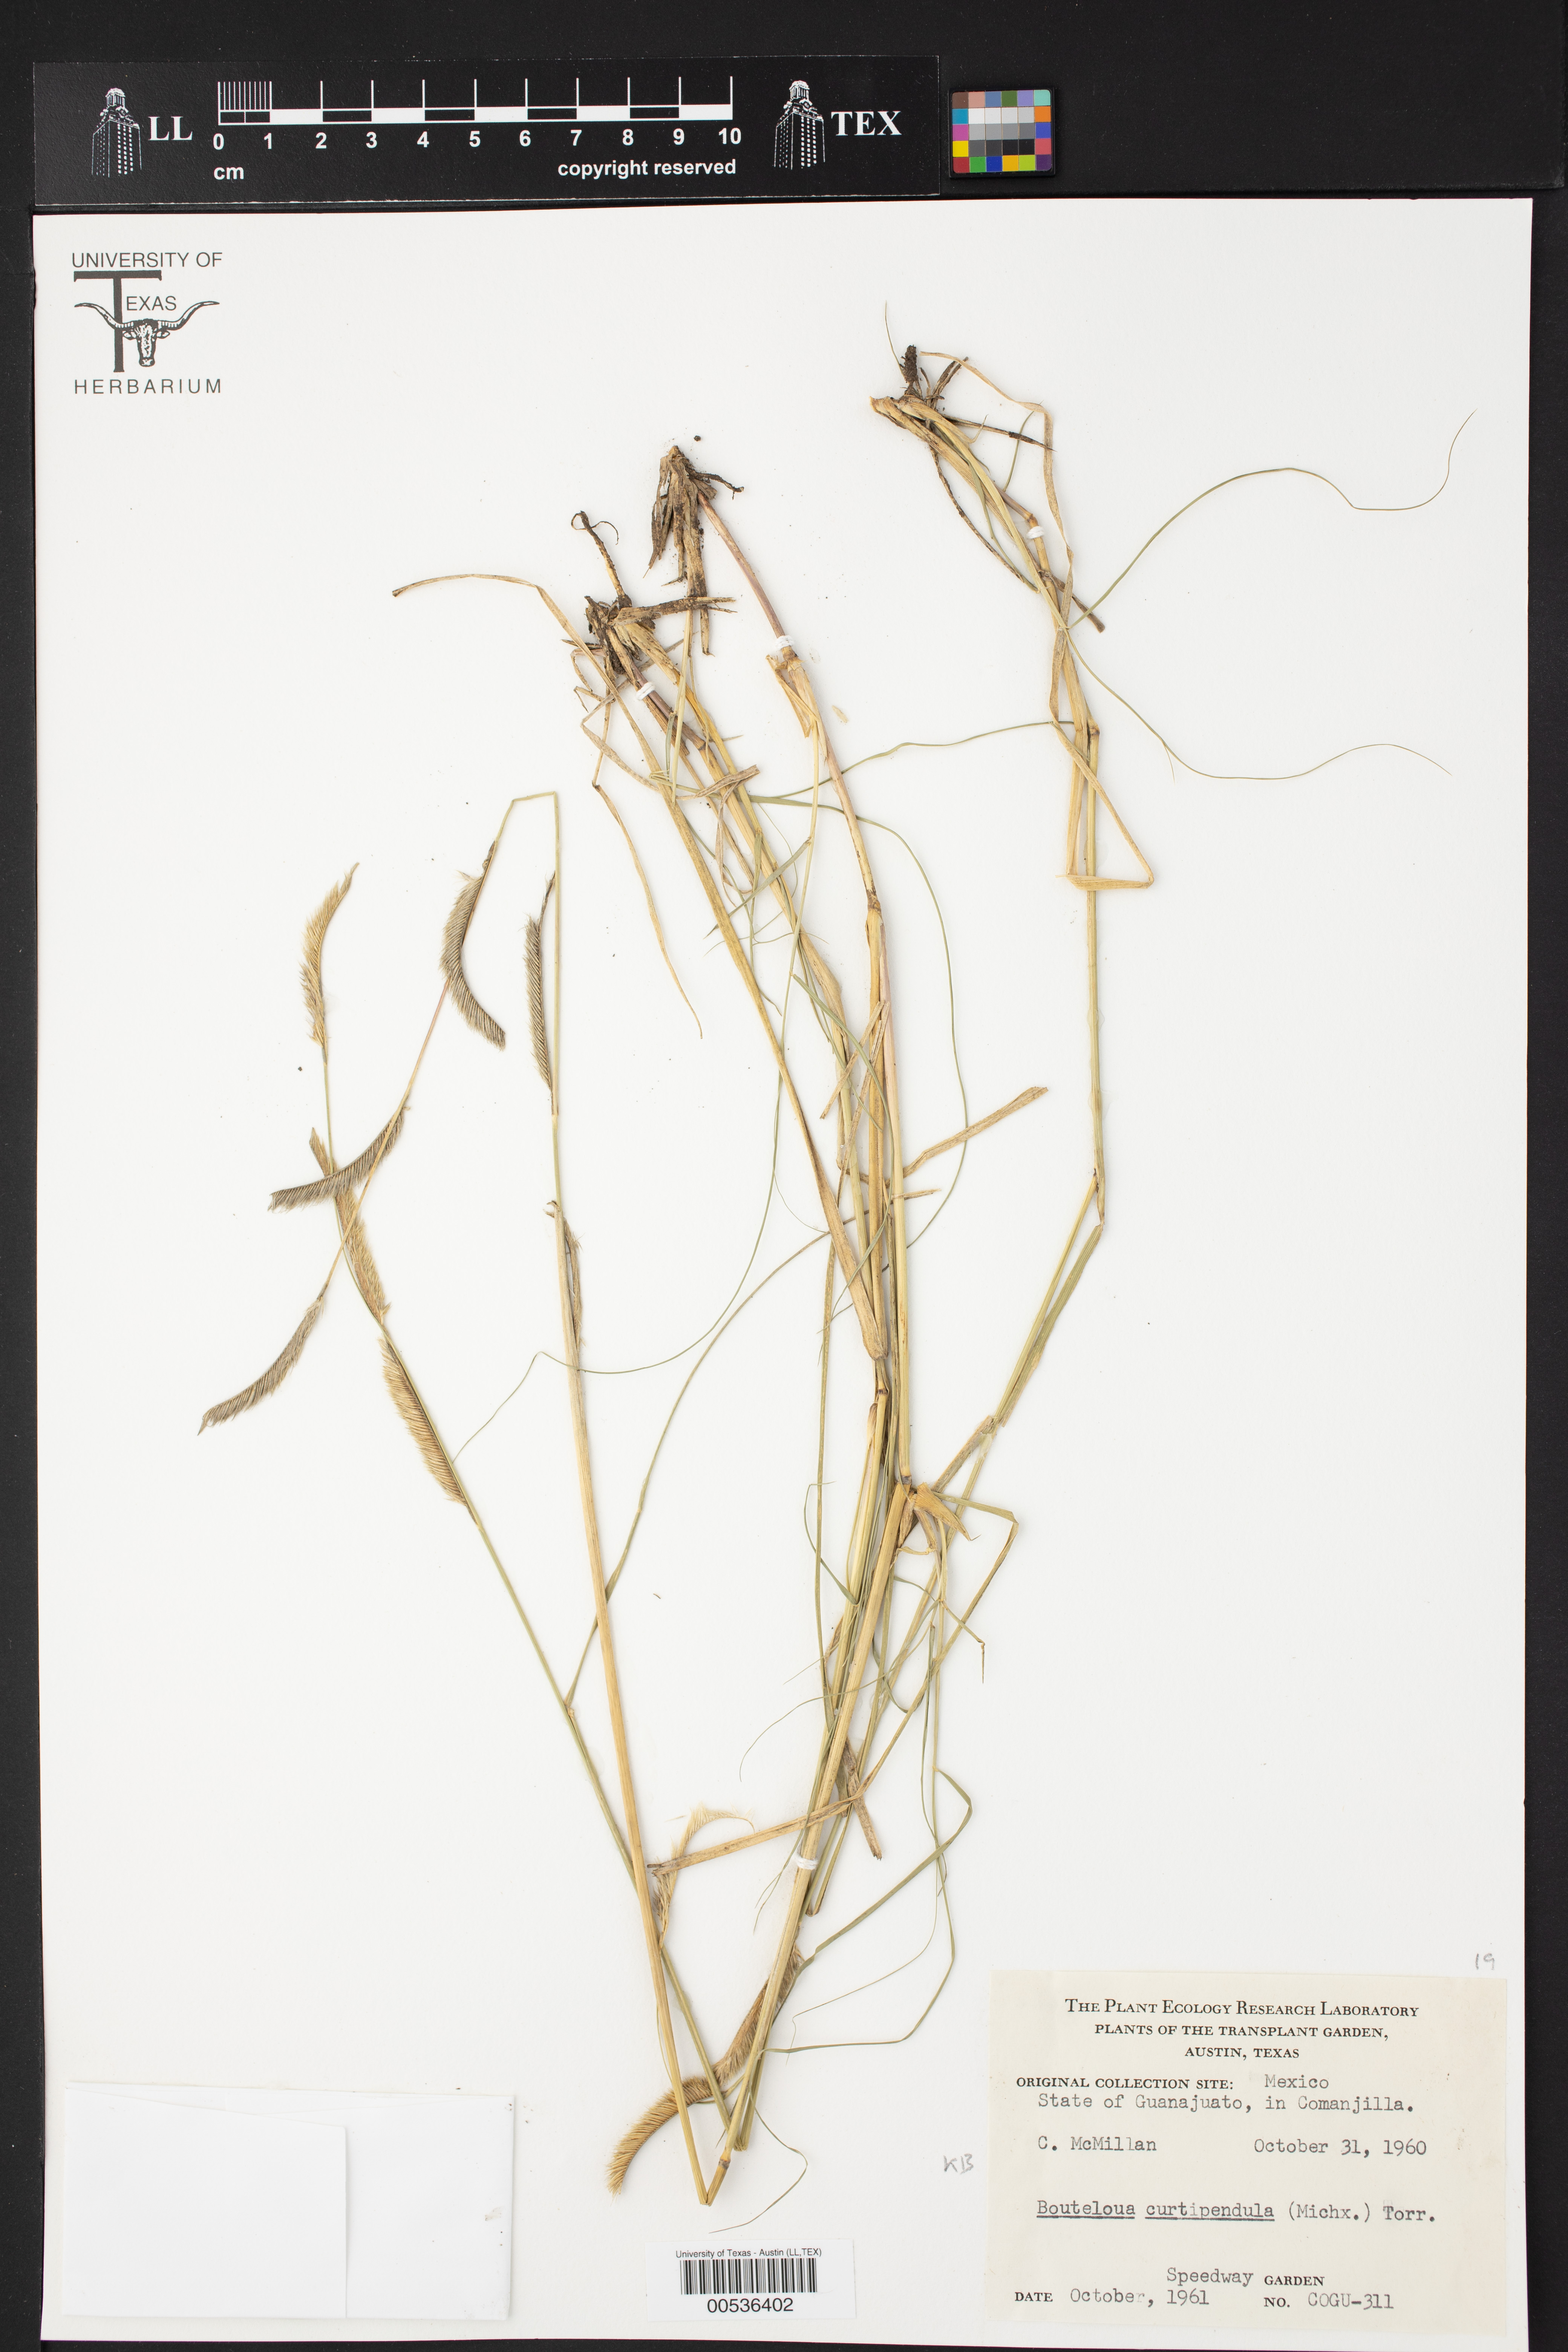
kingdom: Plantae
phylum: Tracheophyta
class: Liliopsida
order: Poales
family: Poaceae
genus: Bouteloua
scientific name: Bouteloua curtipendula
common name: Side-oats grama
